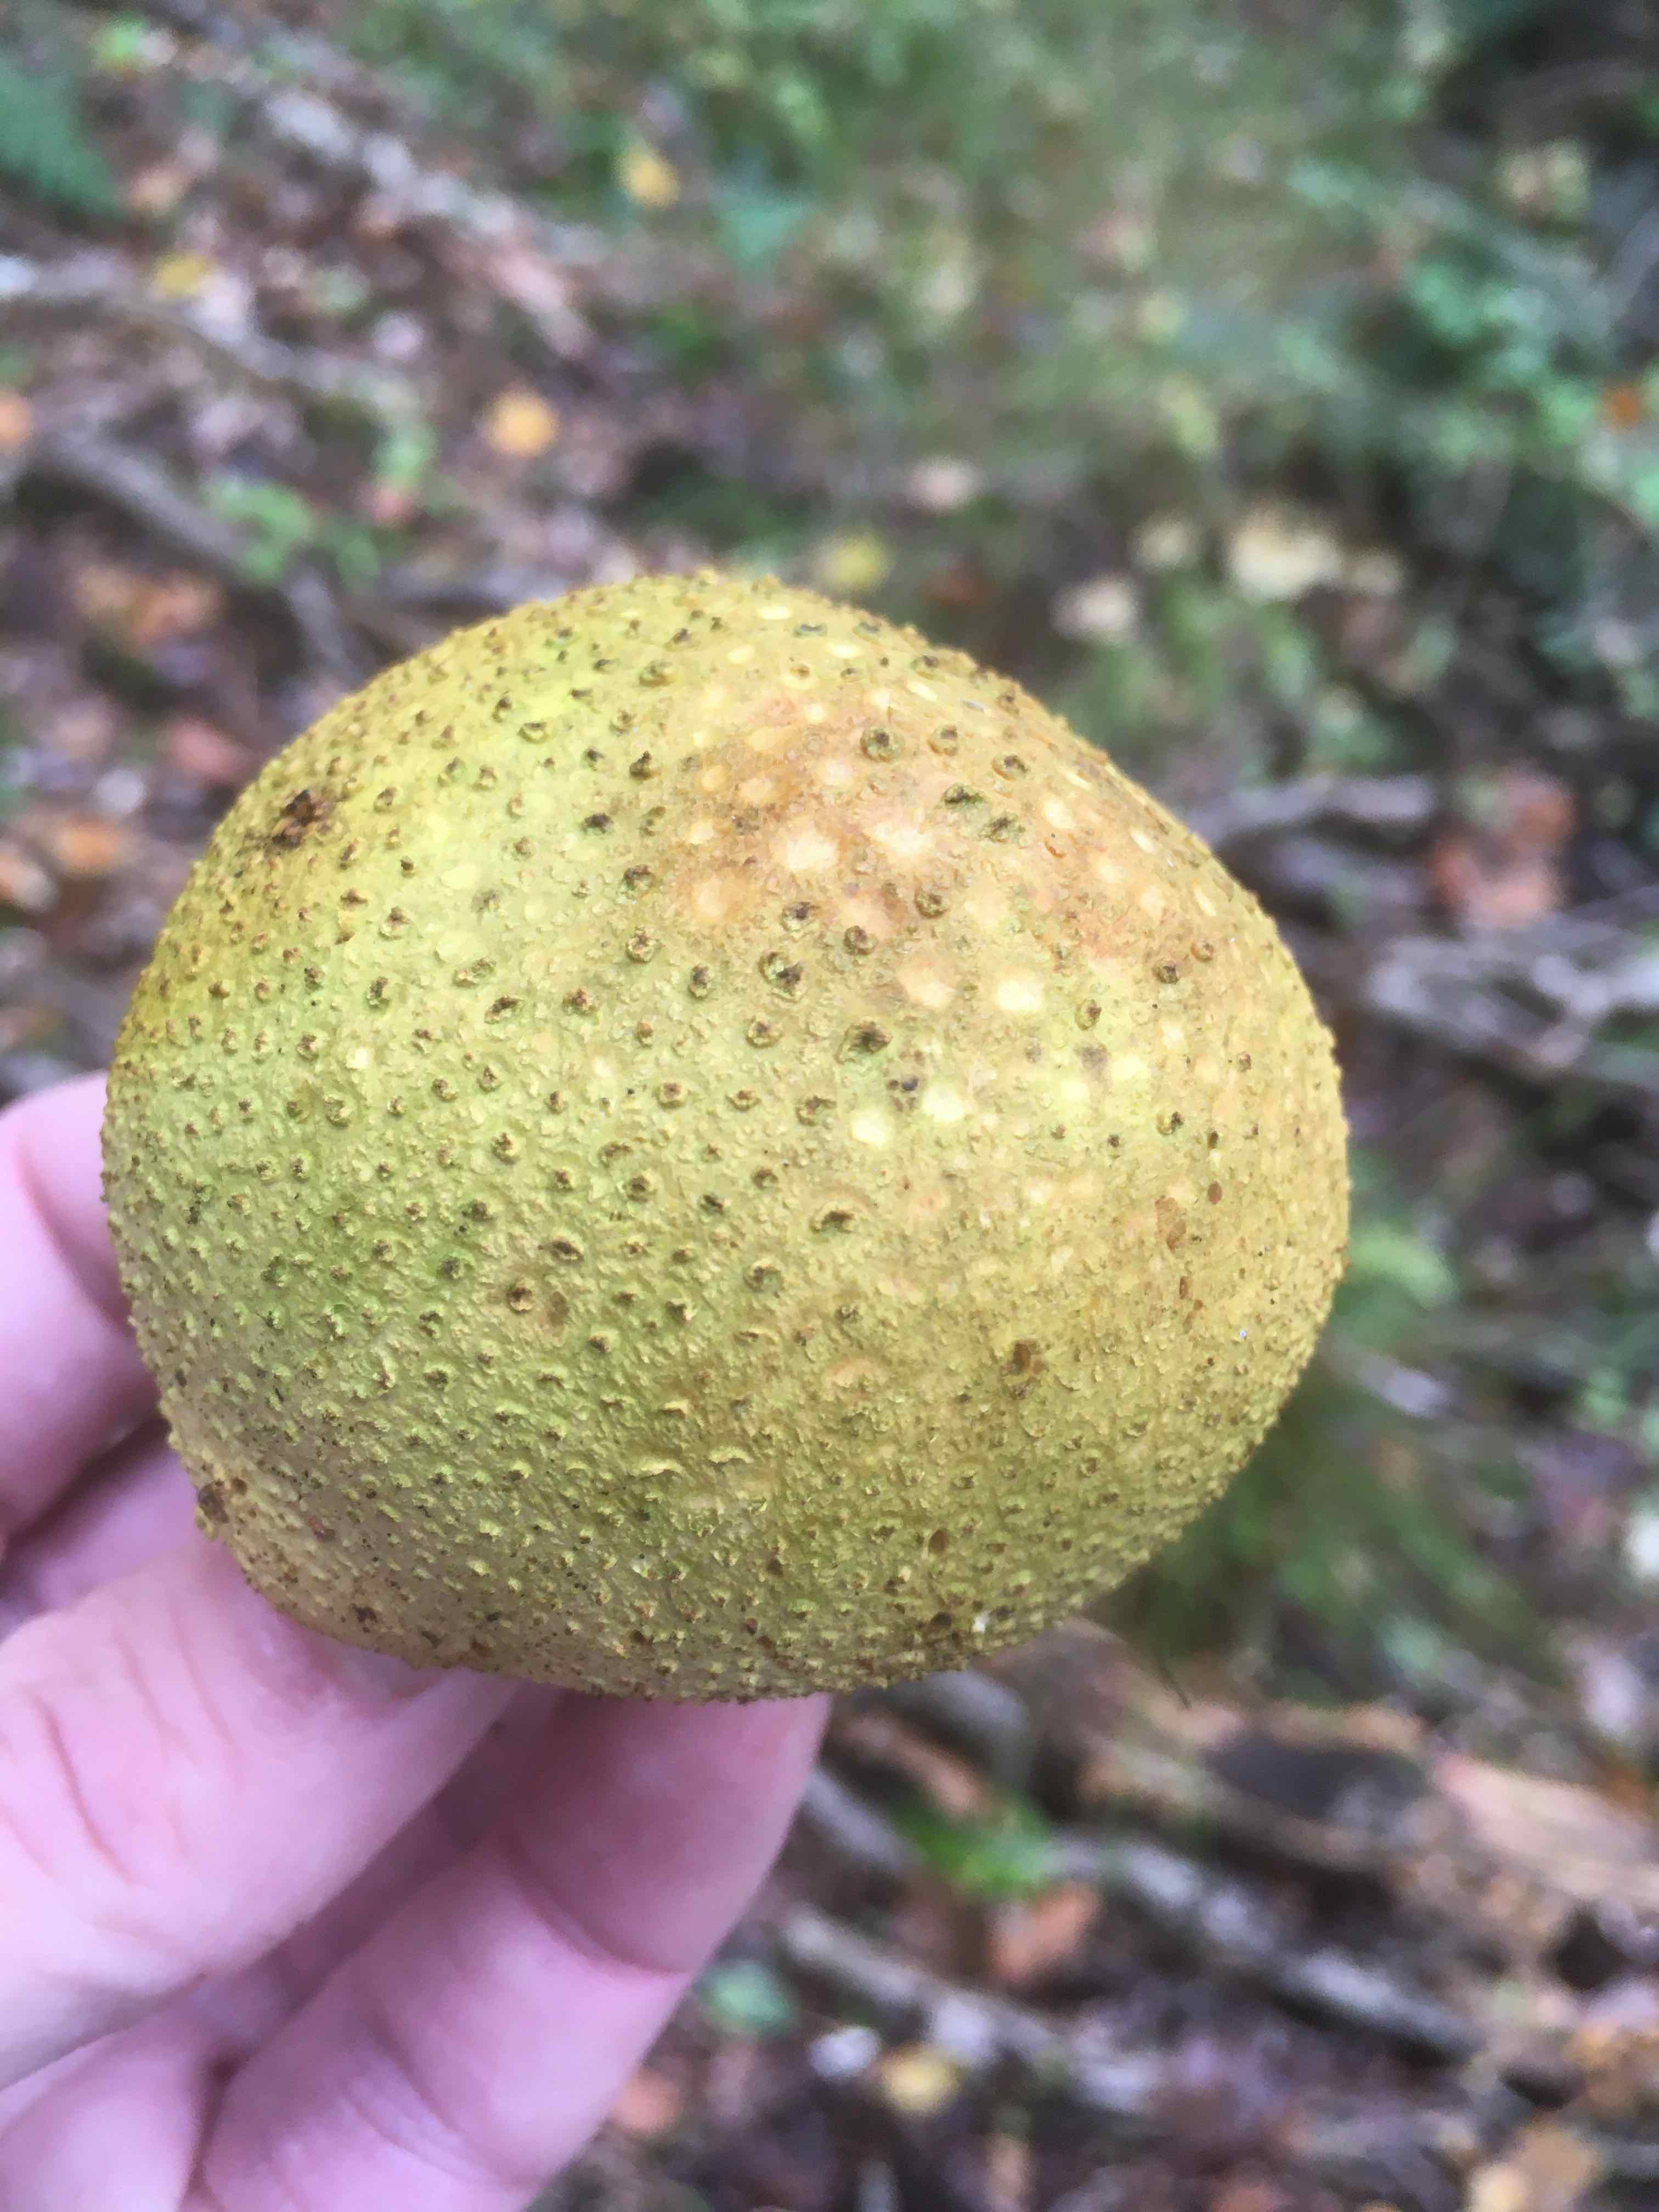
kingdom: Fungi
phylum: Basidiomycota
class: Agaricomycetes
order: Boletales
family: Sclerodermataceae
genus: Scleroderma
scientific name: Scleroderma citrinum
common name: almindelig bruskbold
